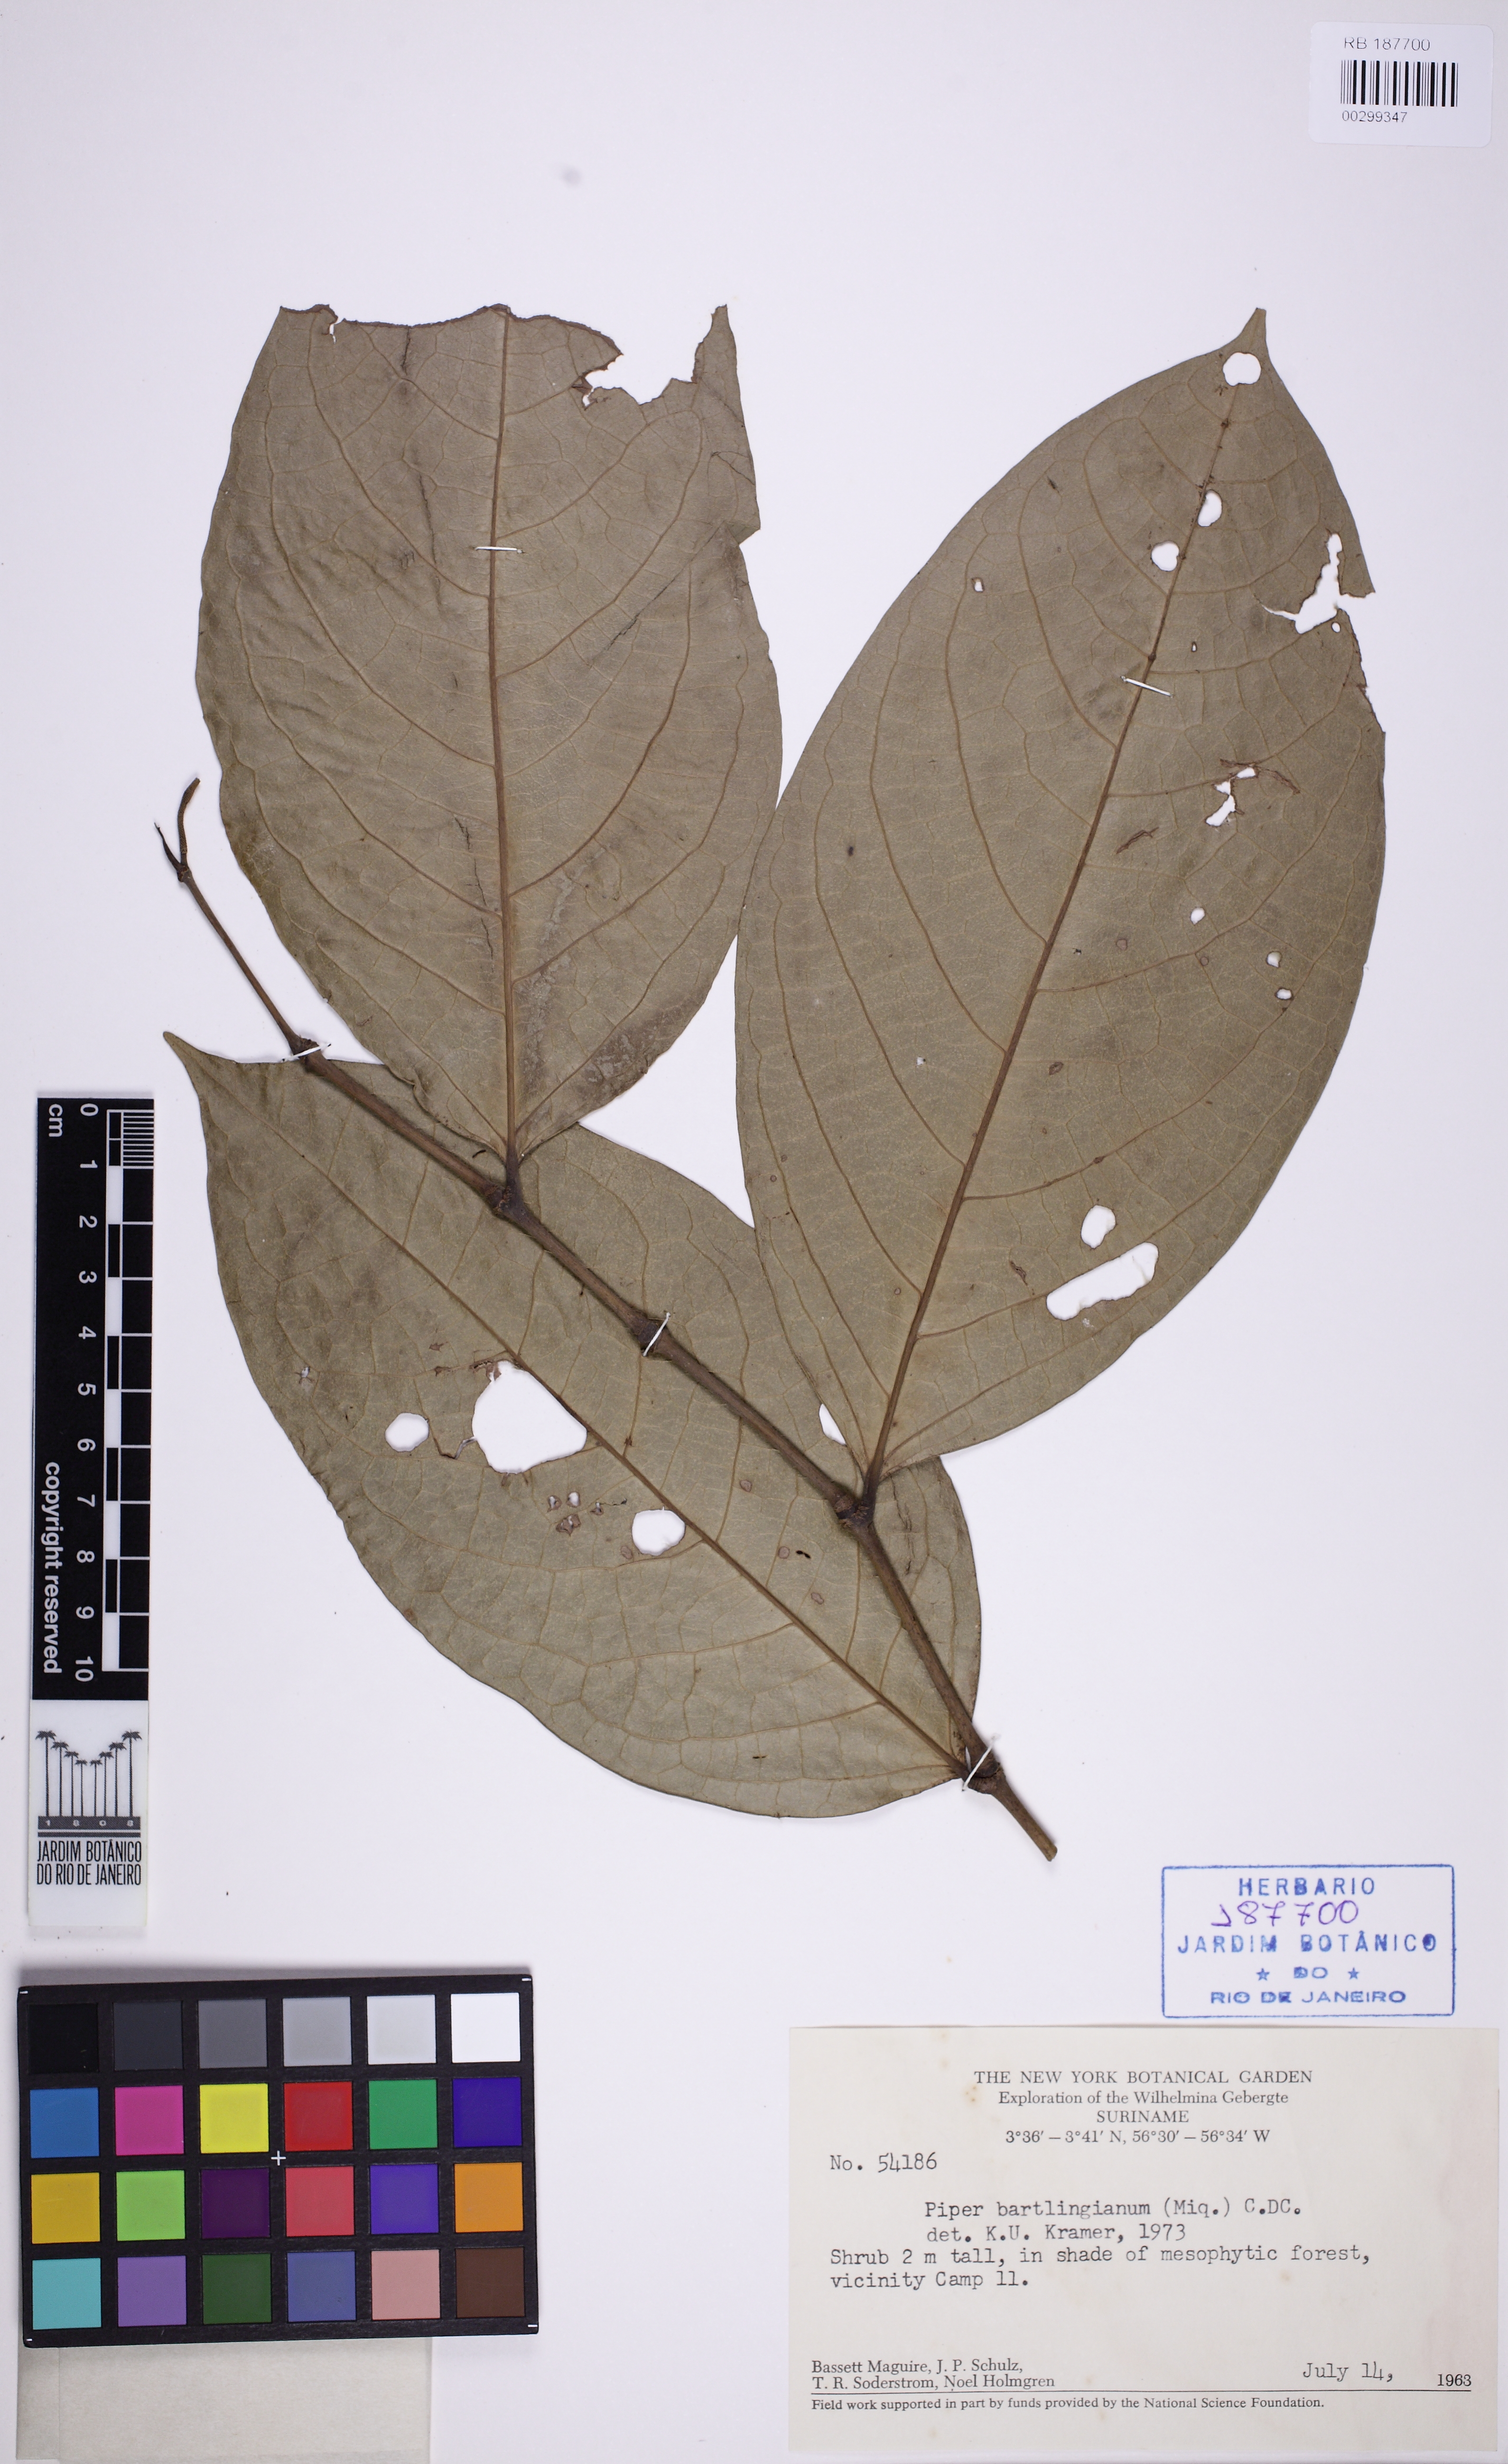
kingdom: Plantae
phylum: Tracheophyta
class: Magnoliopsida
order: Piperales
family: Piperaceae
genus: Piper
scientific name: Piper bartlingianum
